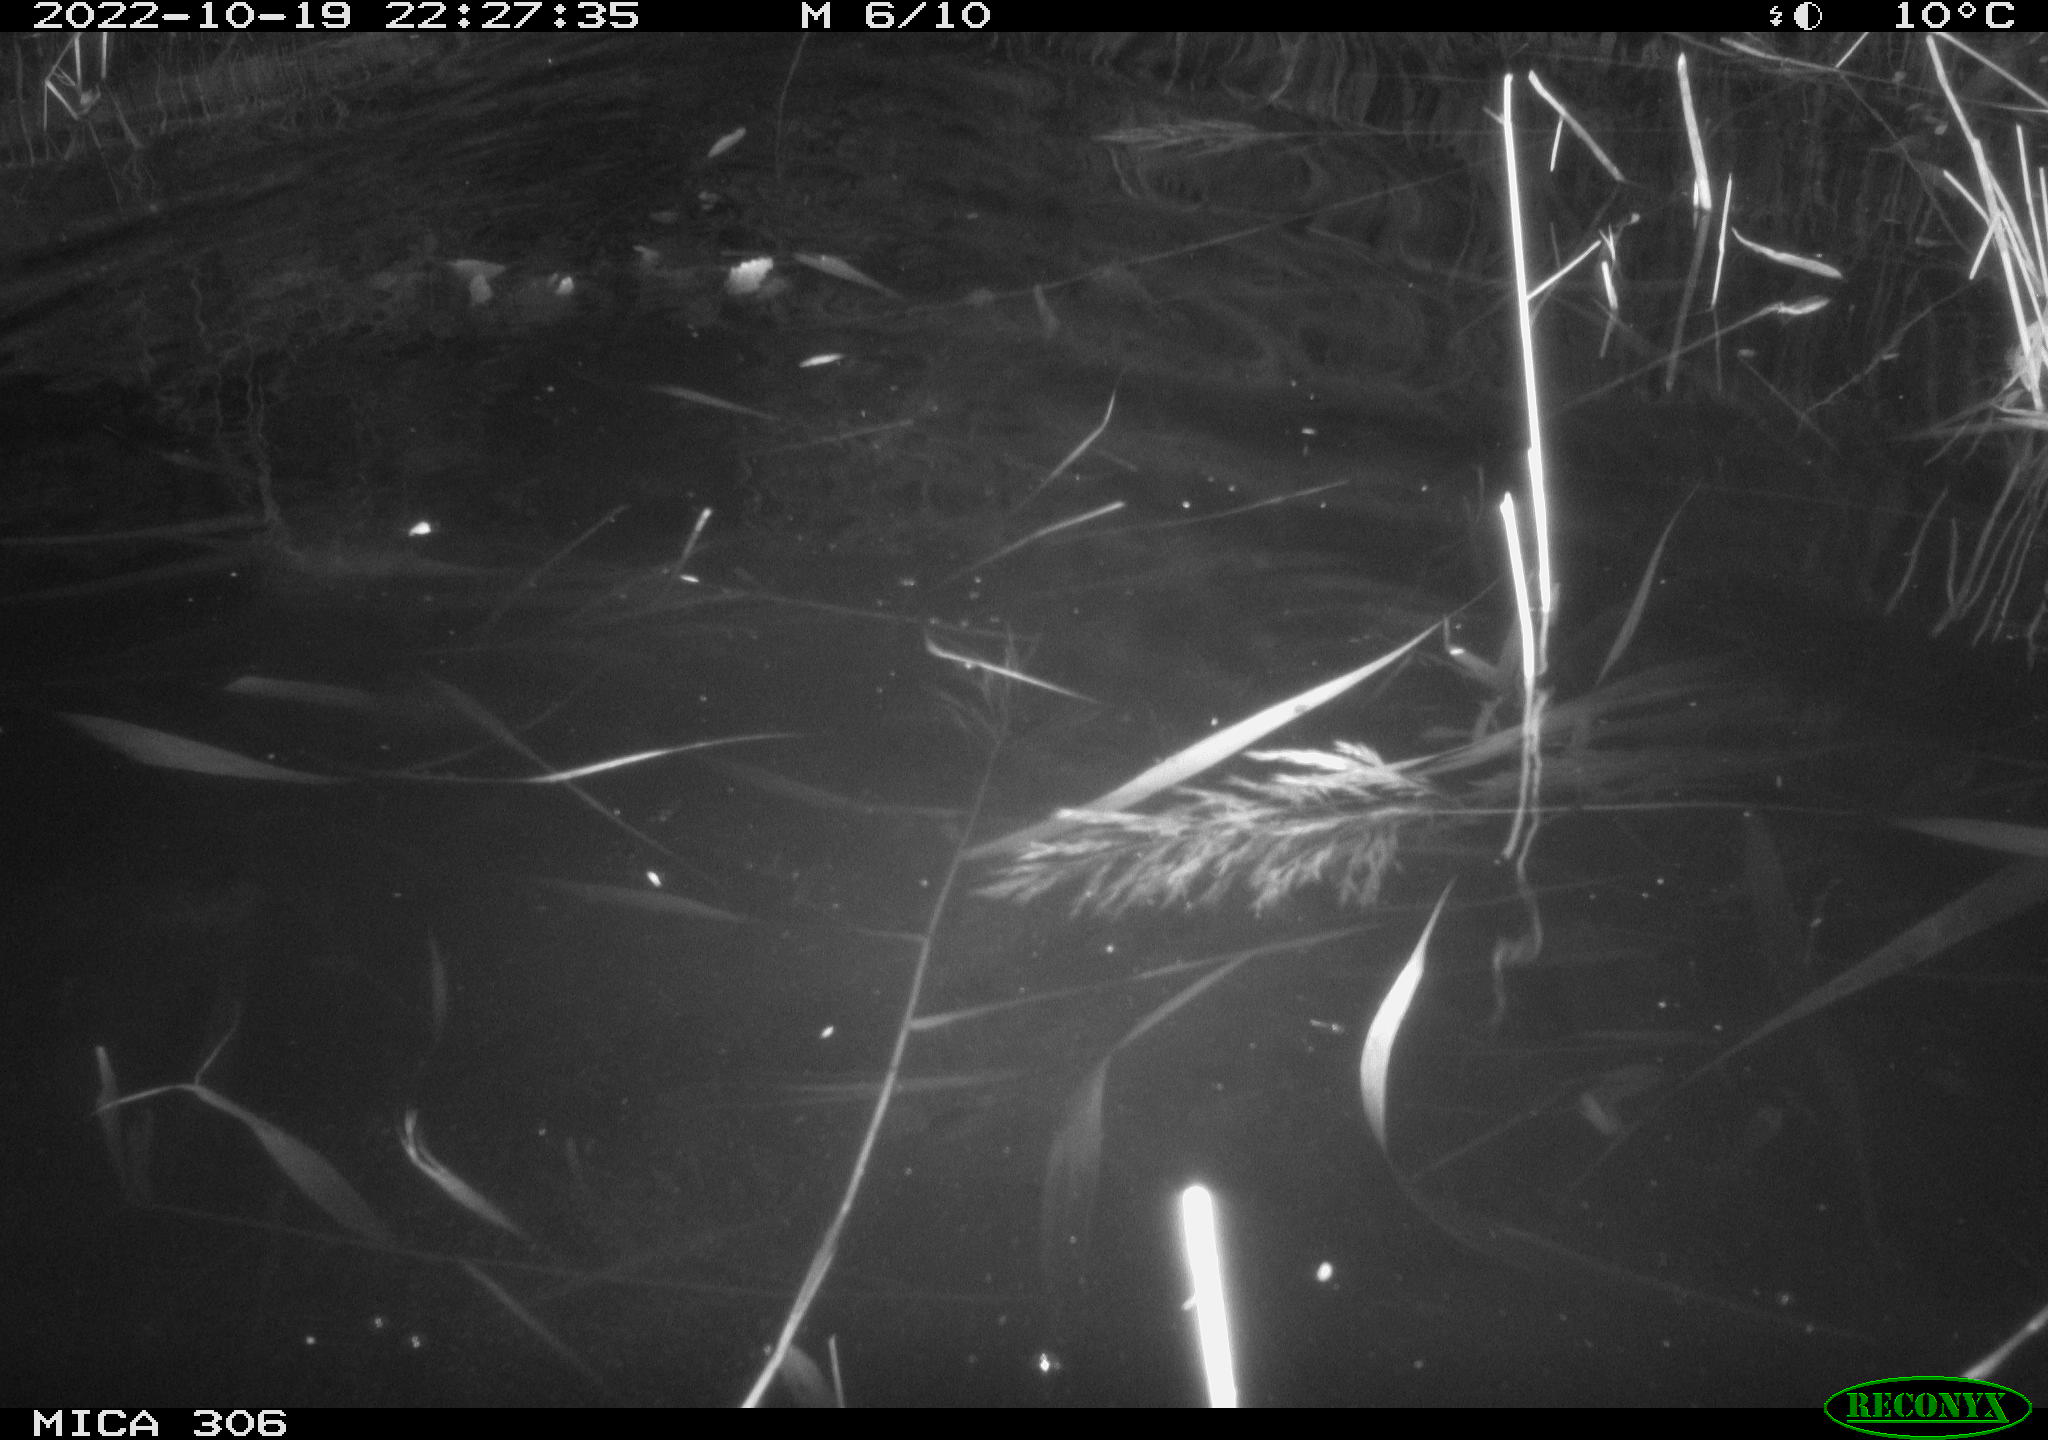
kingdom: Animalia
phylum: Chordata
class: Mammalia
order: Rodentia
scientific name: Rodentia
